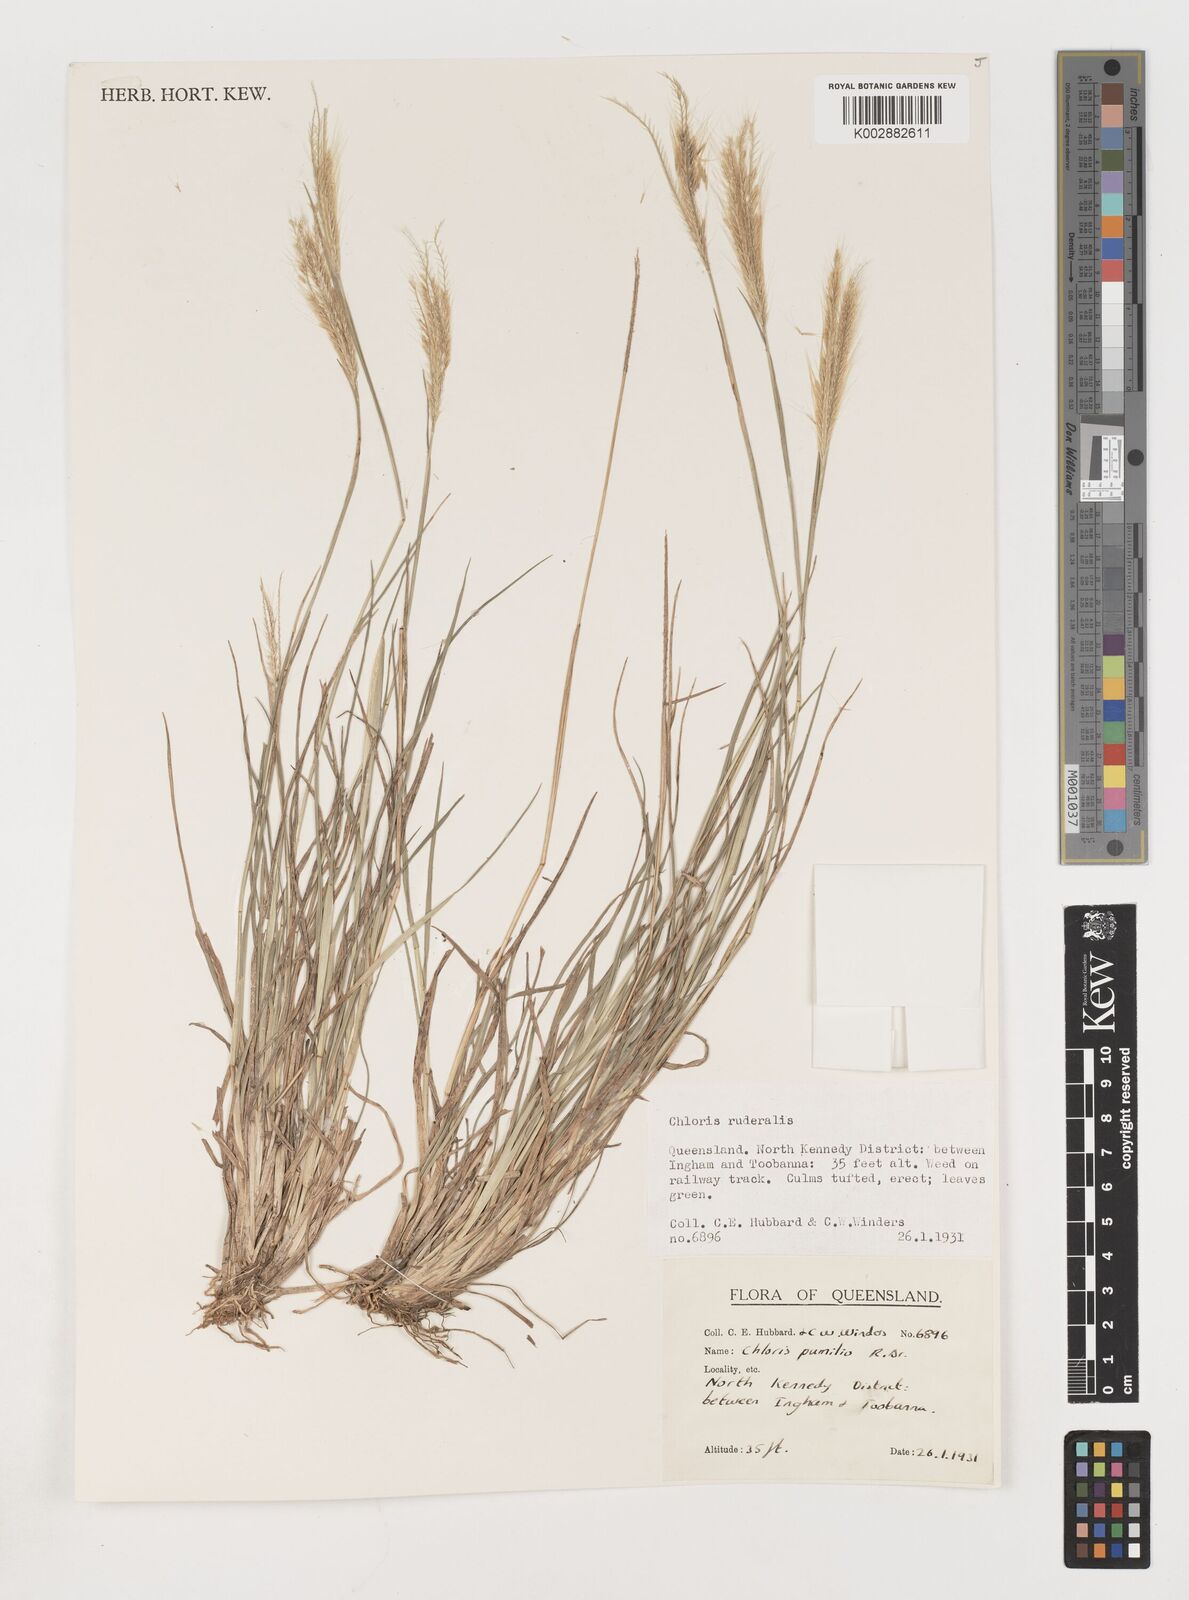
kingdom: Plantae
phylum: Tracheophyta
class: Liliopsida
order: Poales
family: Poaceae
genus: Chloris
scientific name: Chloris pumilio
